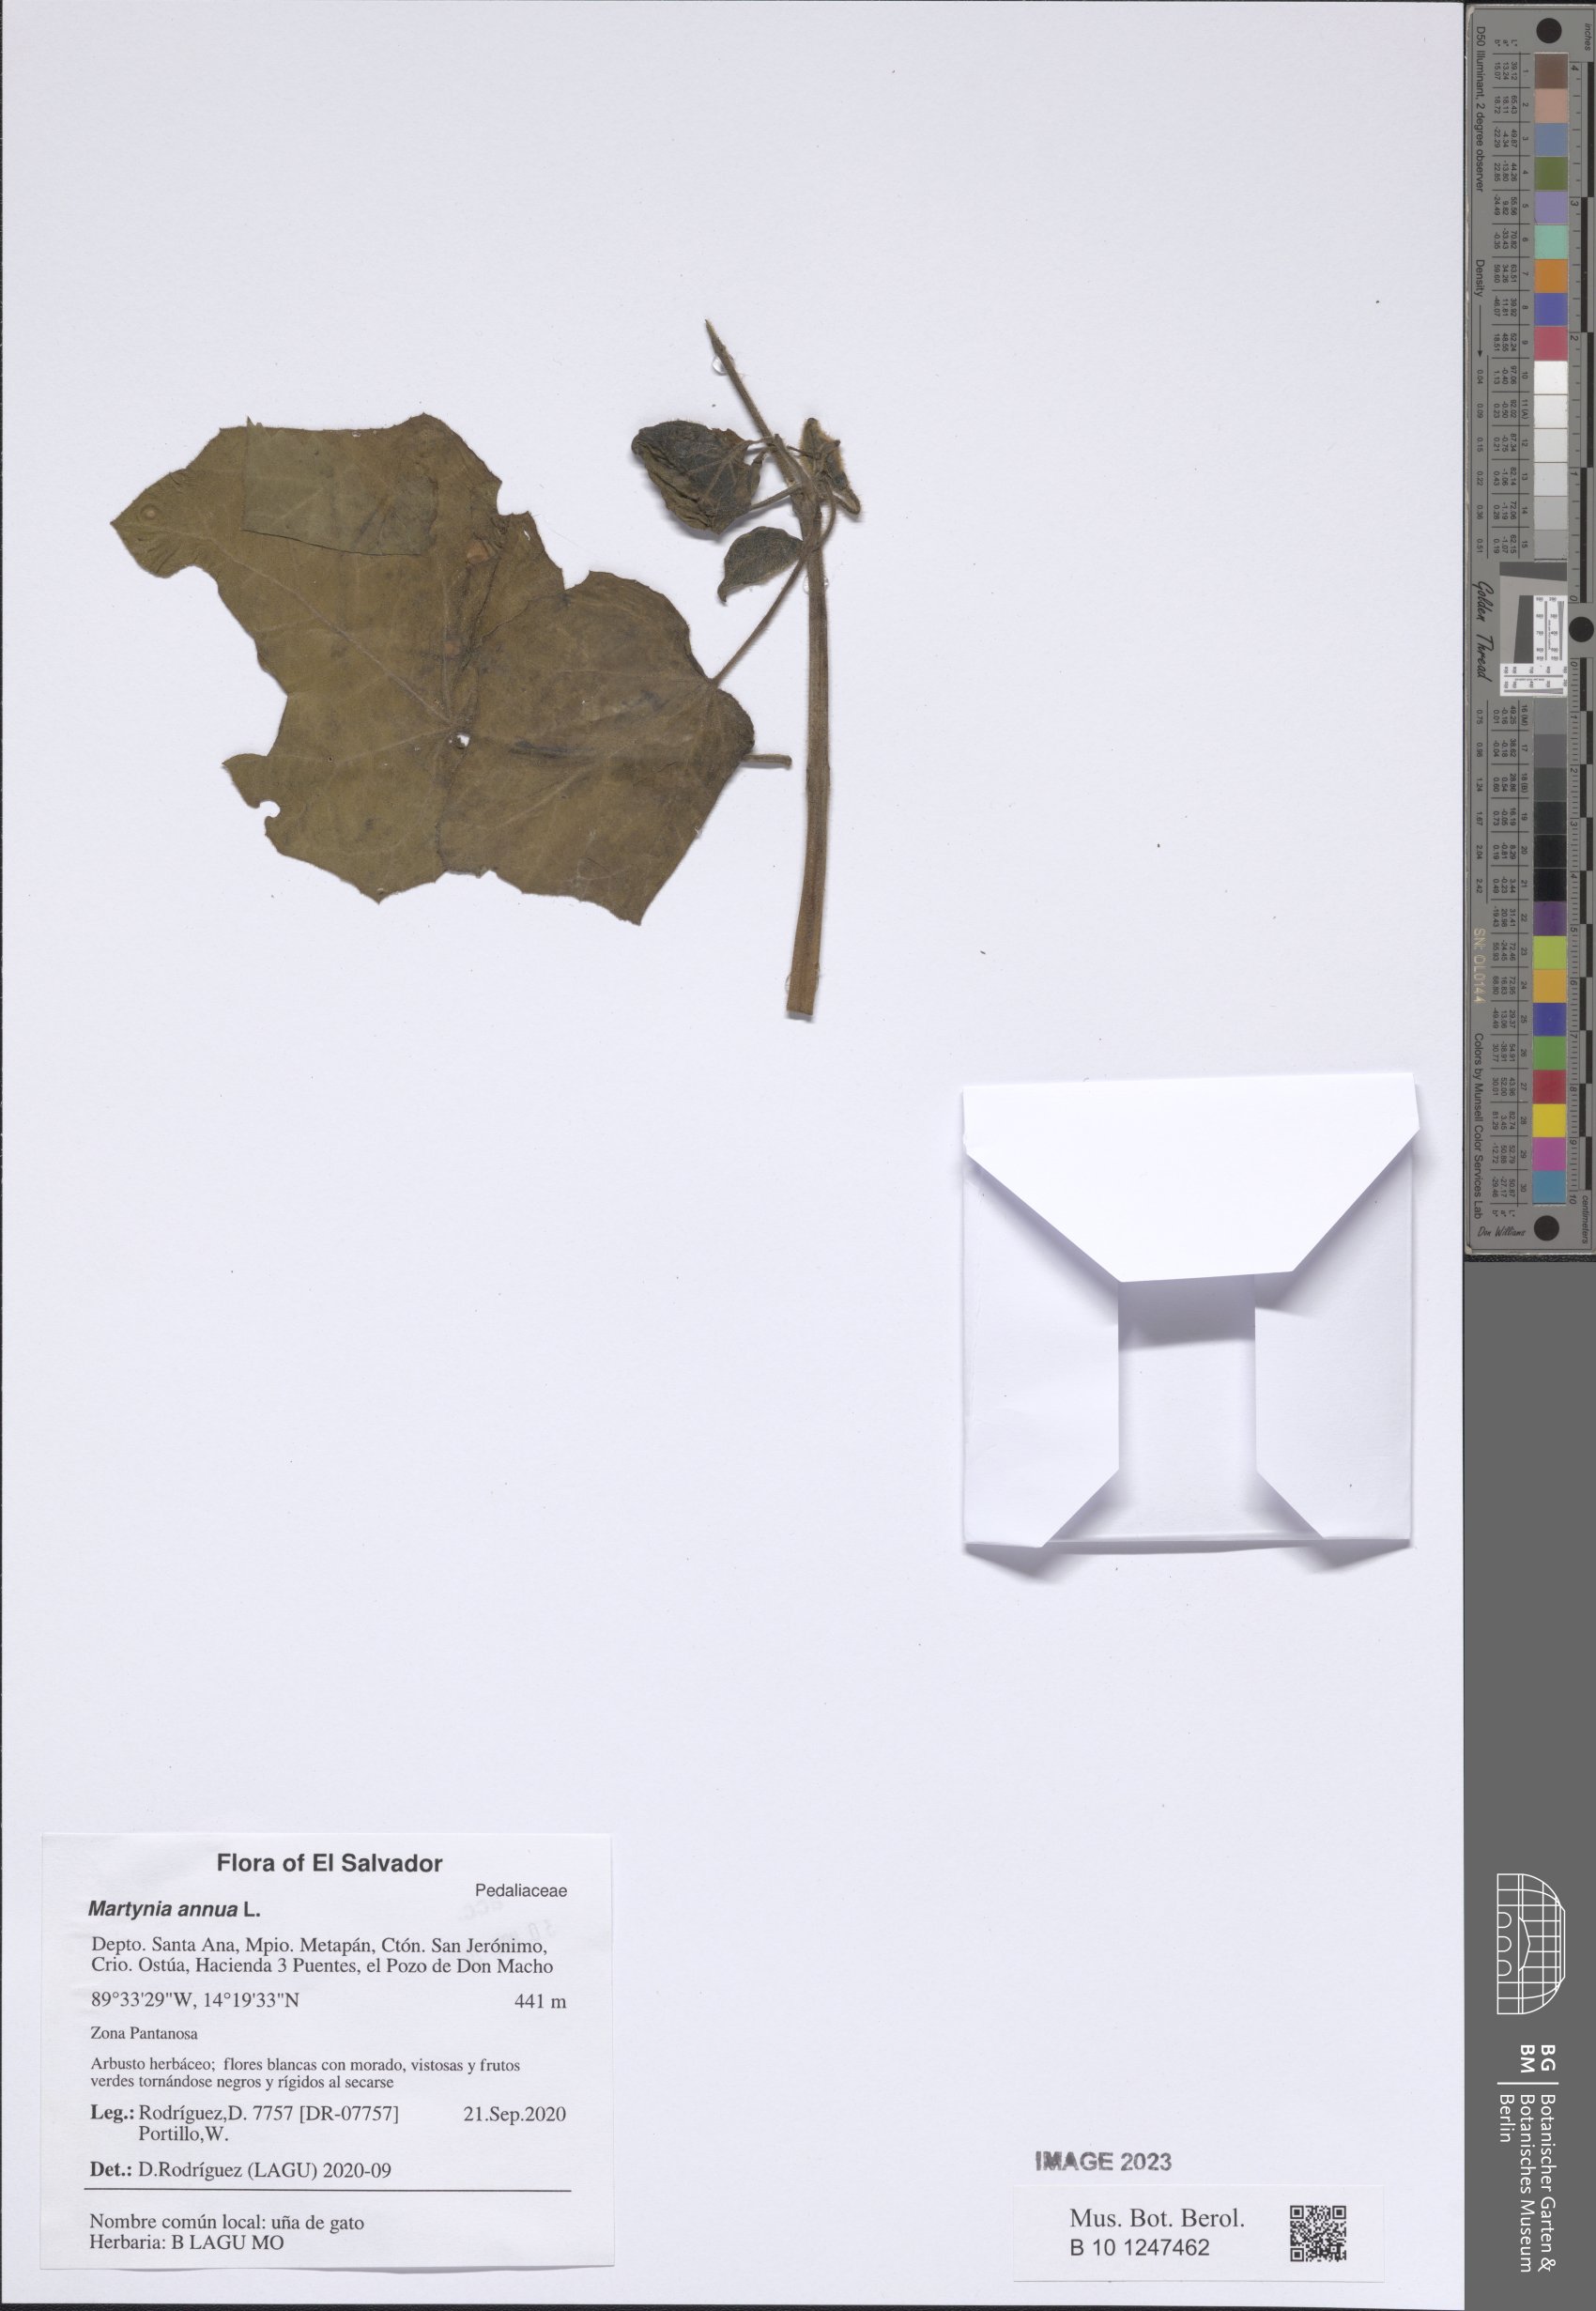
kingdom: Plantae
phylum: Tracheophyta
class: Magnoliopsida
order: Lamiales
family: Martyniaceae
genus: Martynia
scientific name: Martynia annua
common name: Tiger's-claw
